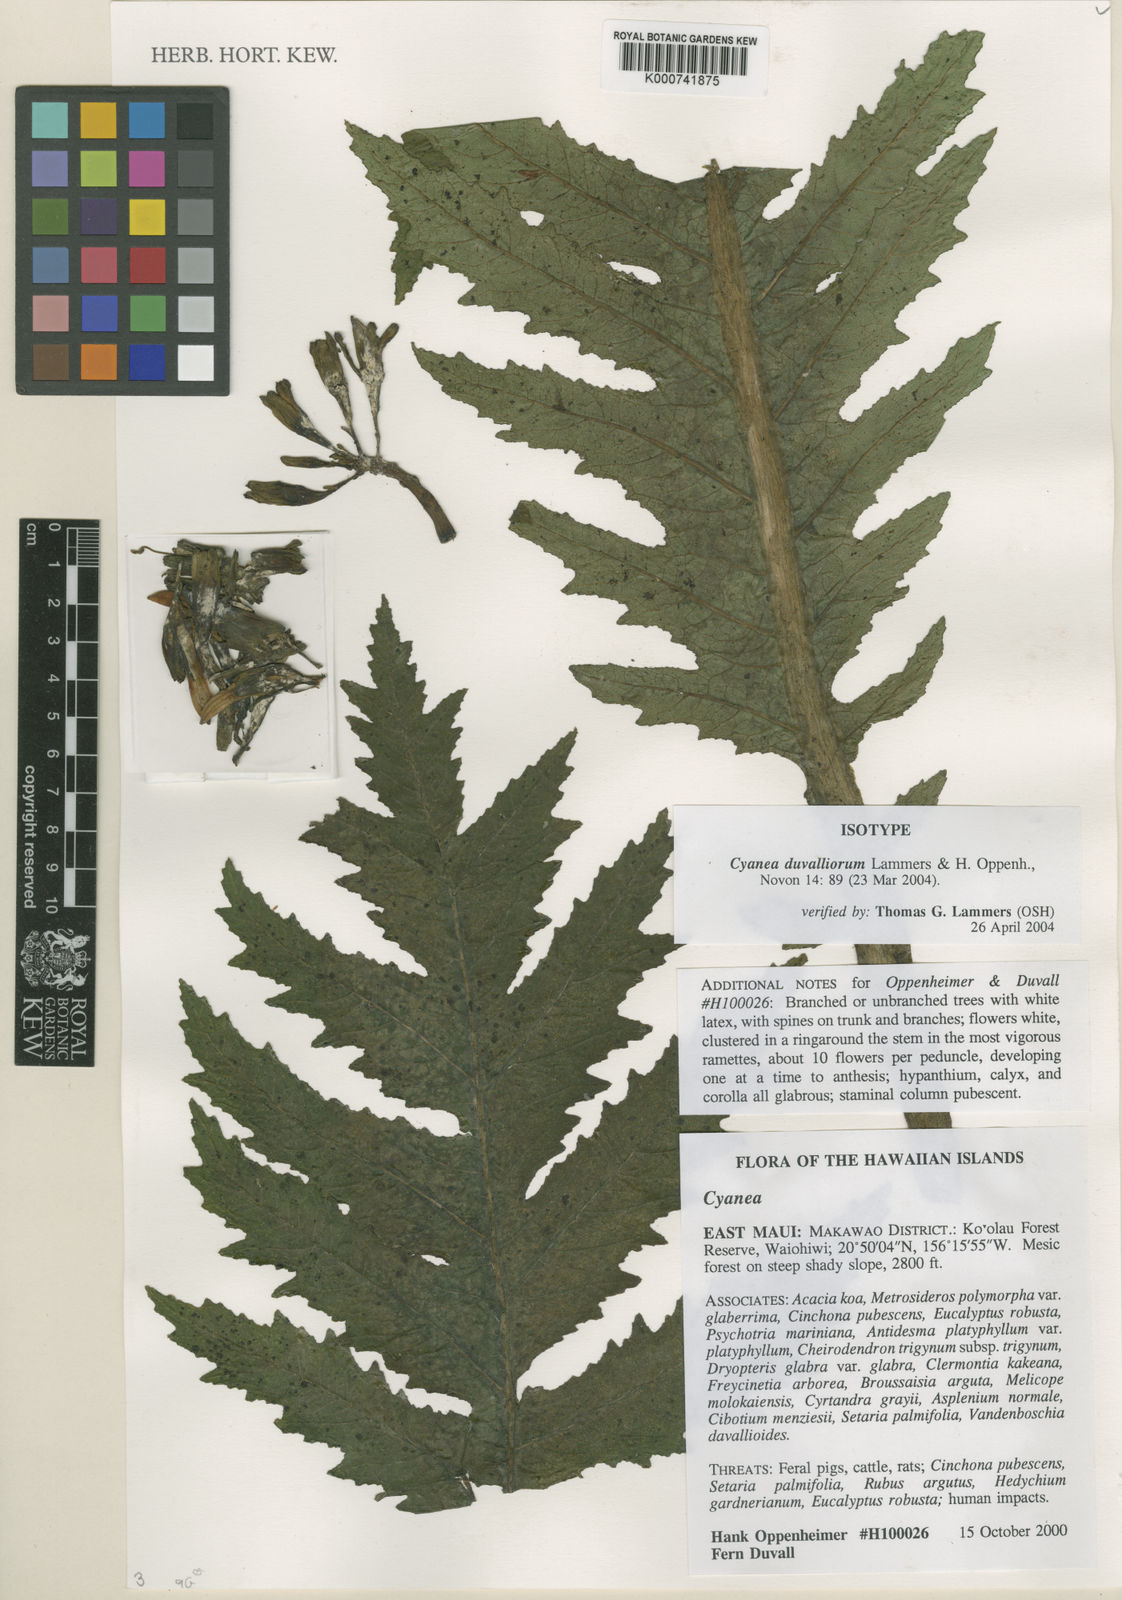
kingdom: Plantae
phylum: Tracheophyta
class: Magnoliopsida
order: Asterales
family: Campanulaceae
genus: Cyanea
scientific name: Cyanea duvalliorum
